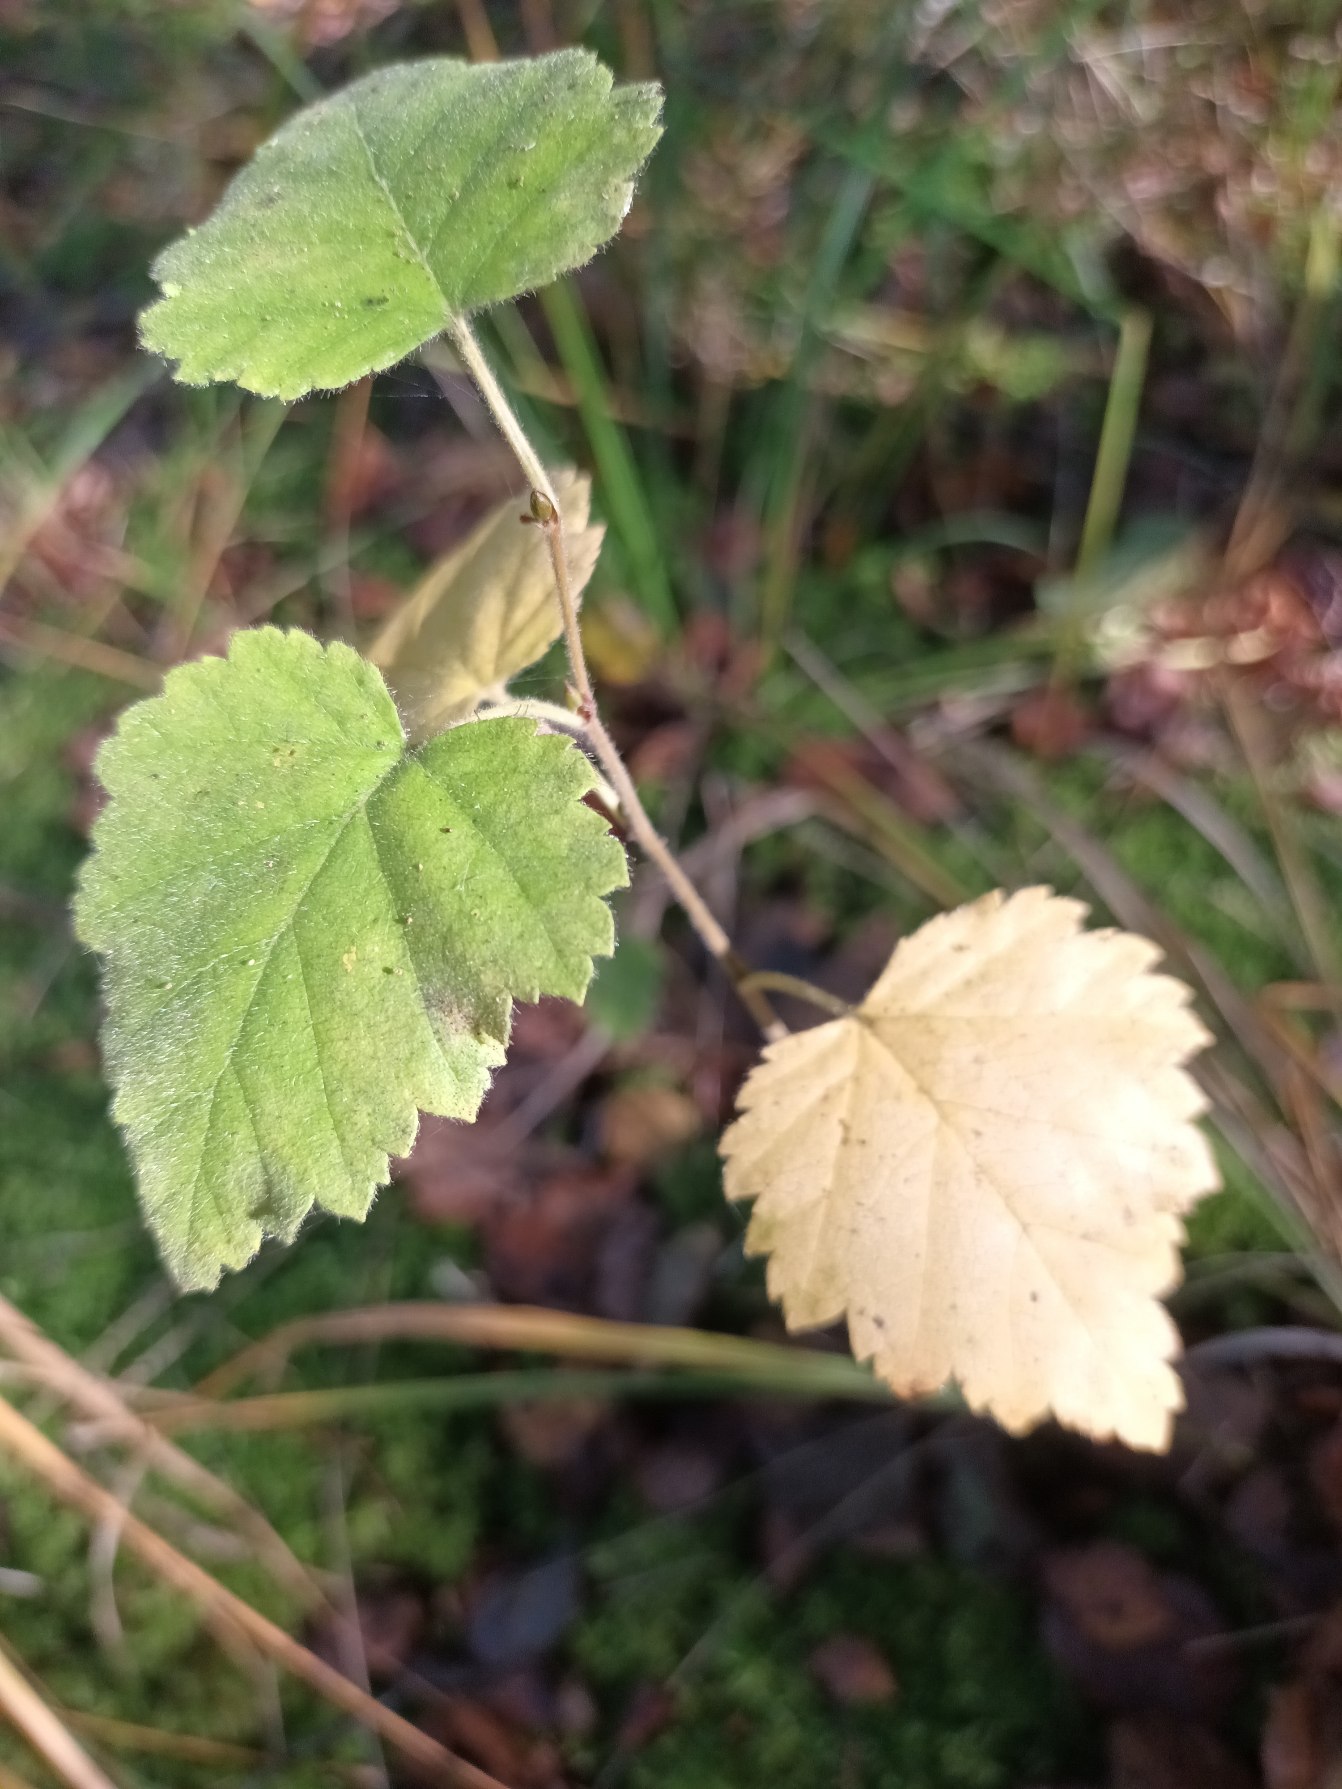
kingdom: Plantae
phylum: Tracheophyta
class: Magnoliopsida
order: Fagales
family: Betulaceae
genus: Betula
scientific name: Betula pubescens
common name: Dun-birk
